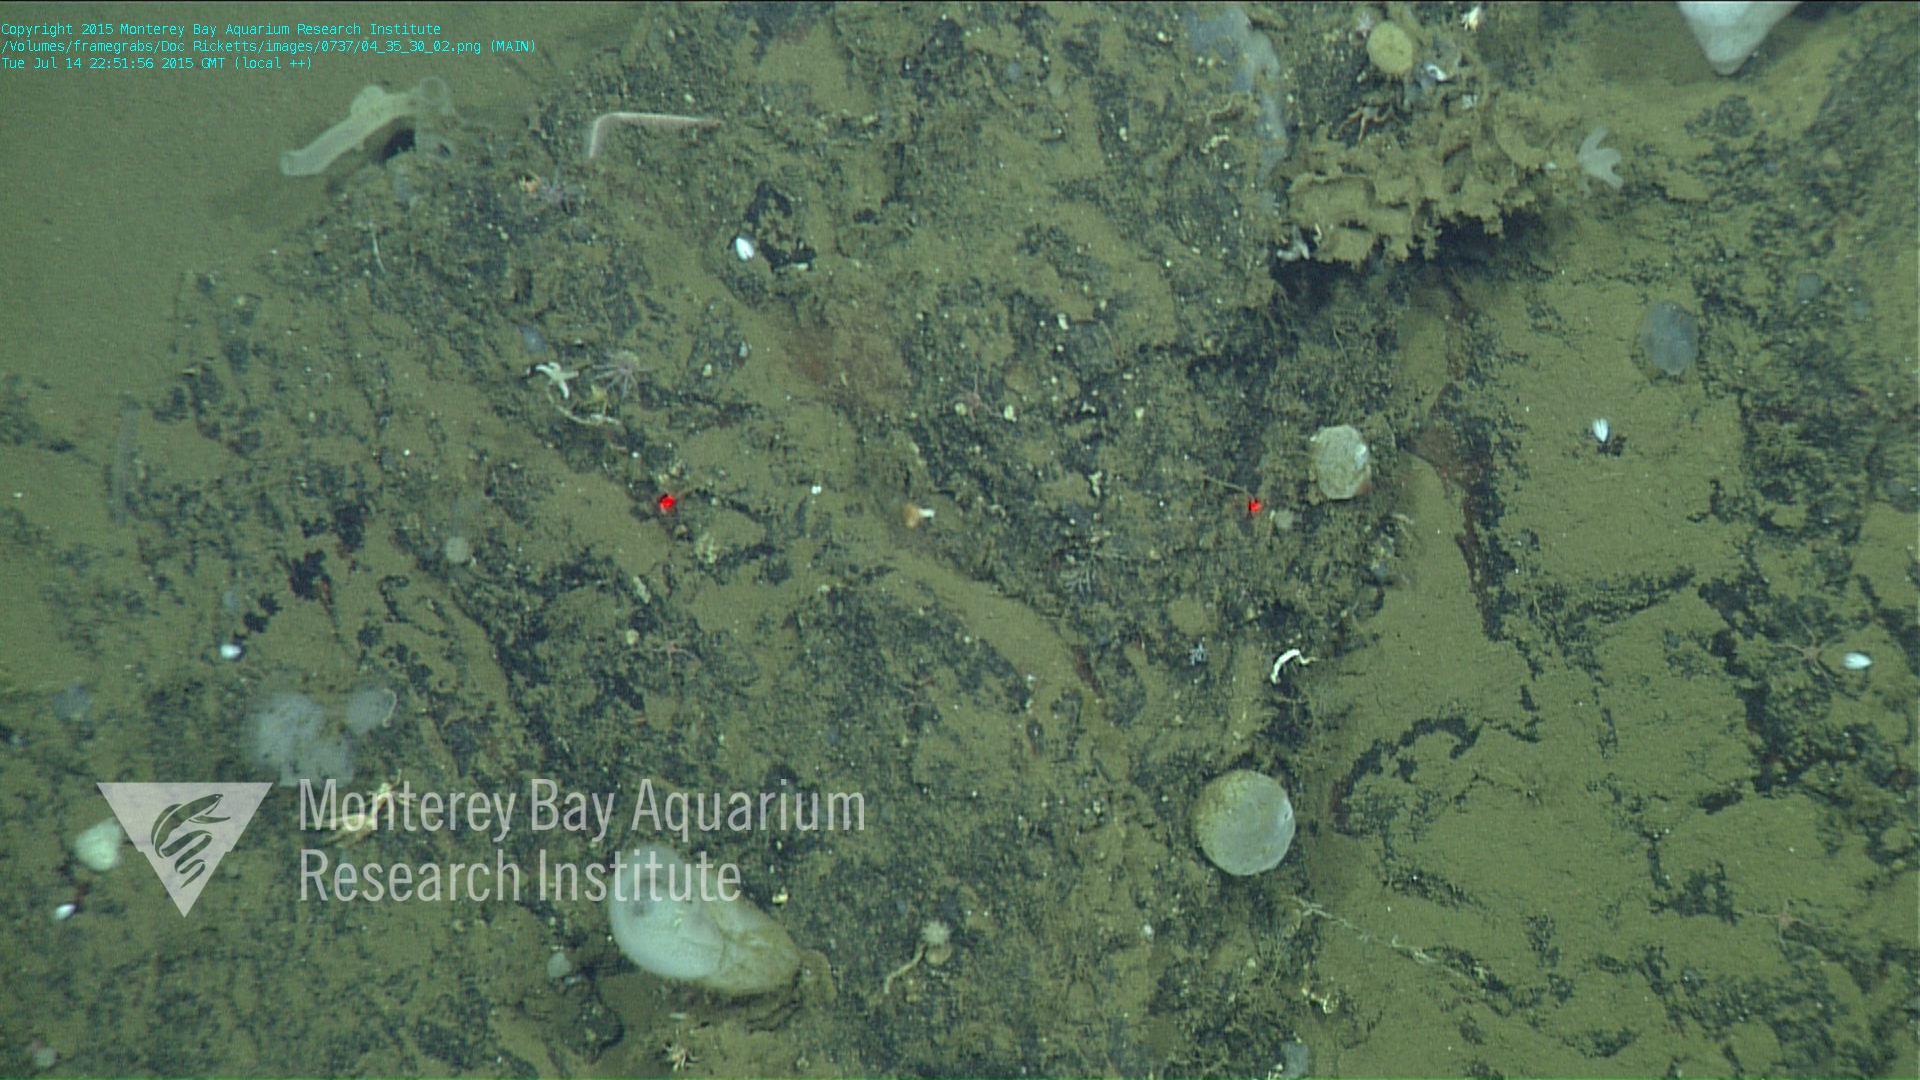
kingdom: Animalia
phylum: Cnidaria
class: Anthozoa
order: Scleralcyonacea
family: Protoptilidae
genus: Distichoptilum
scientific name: Distichoptilum
